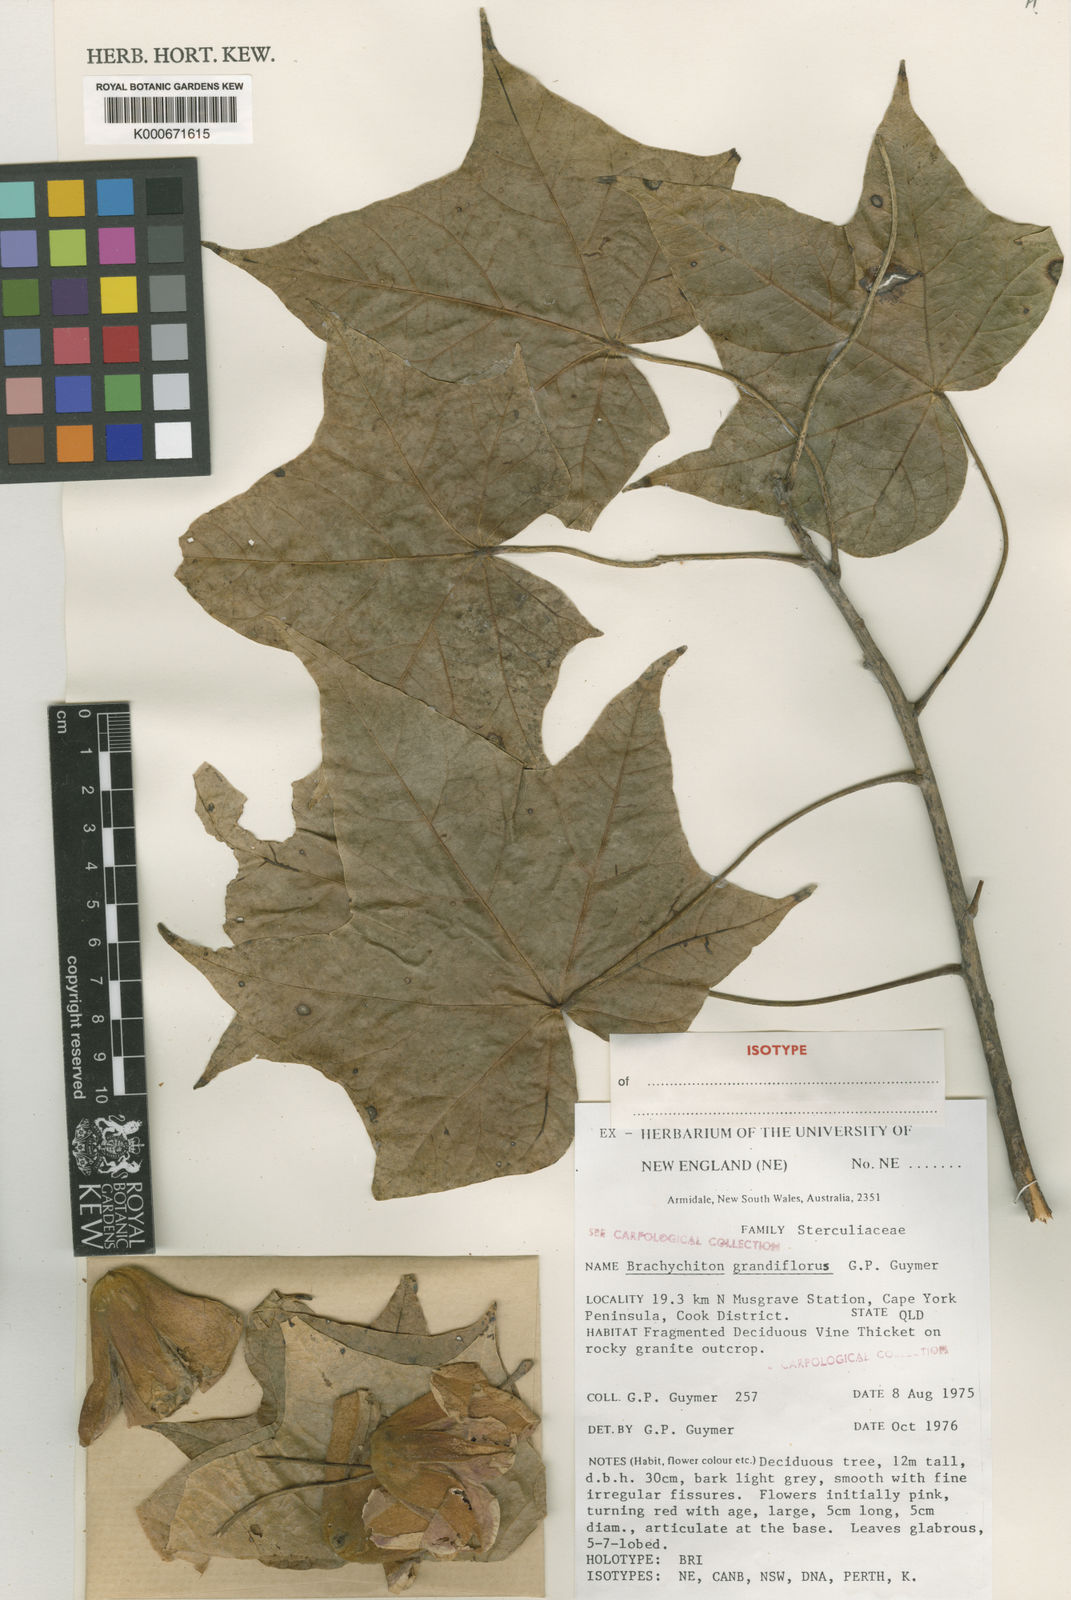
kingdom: Plantae
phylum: Tracheophyta
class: Magnoliopsida
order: Malvales
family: Malvaceae
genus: Brachychiton
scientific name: Brachychiton grandiflorus
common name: Coen kurrajong
